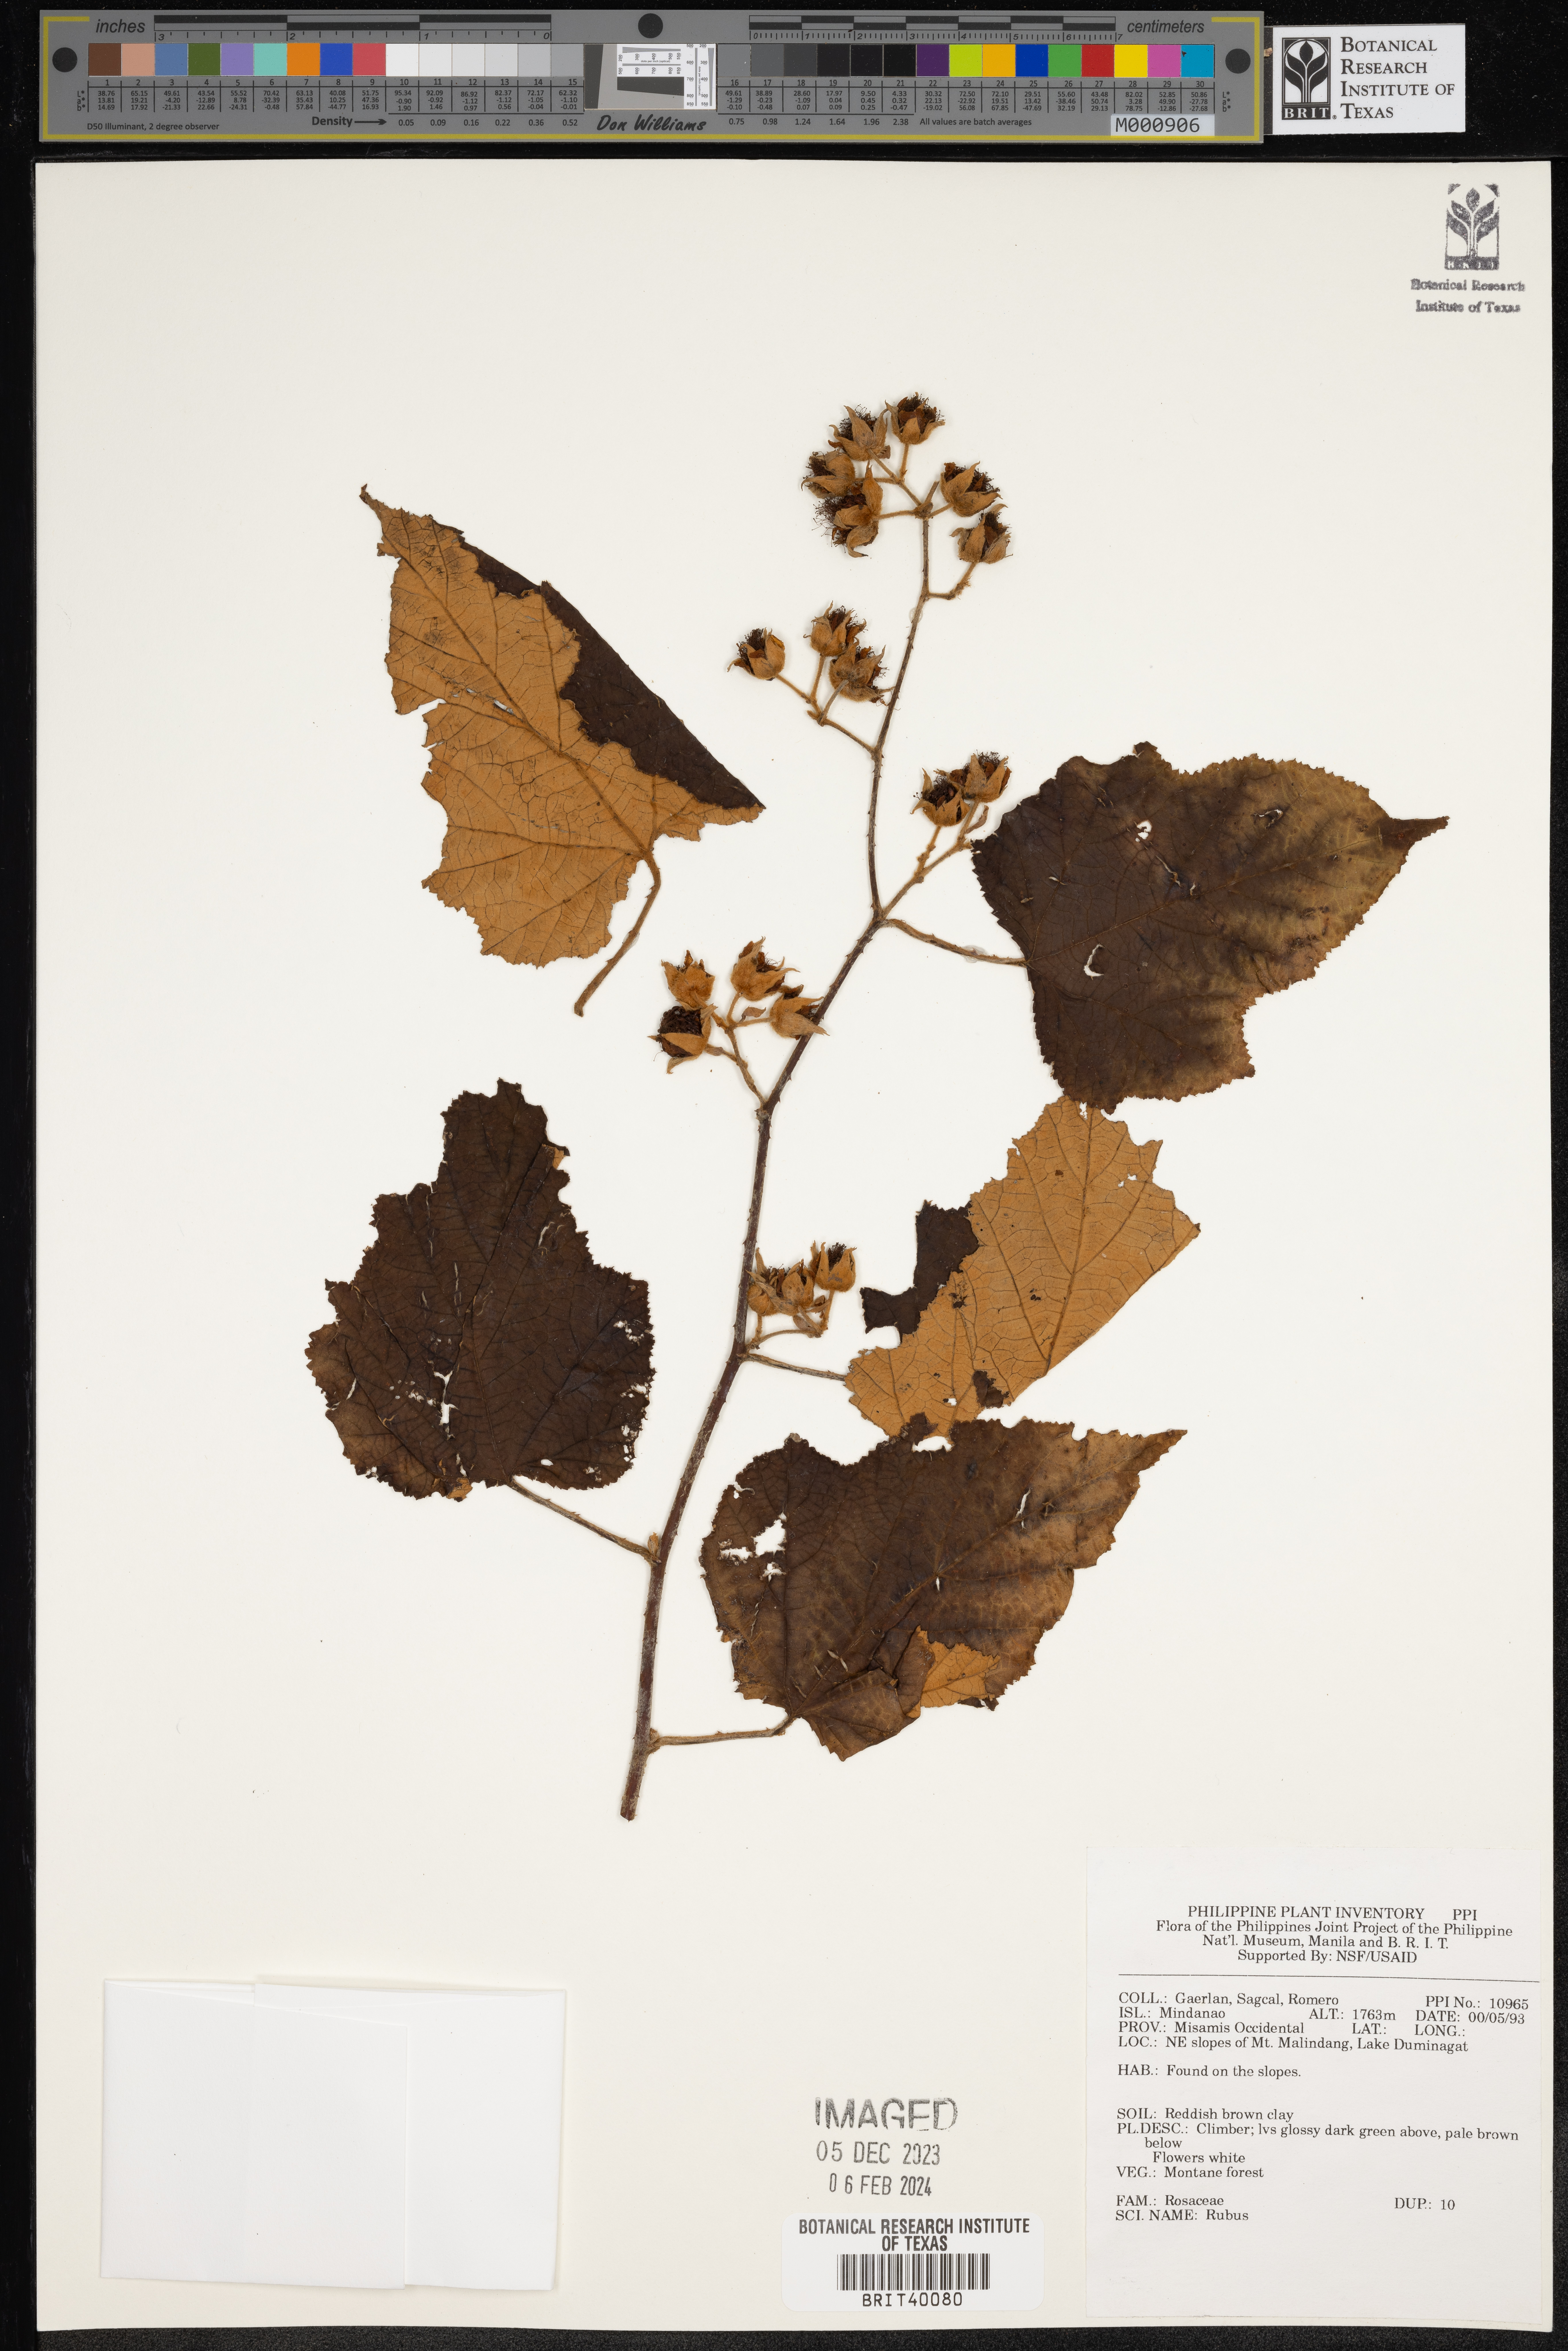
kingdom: Plantae
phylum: Tracheophyta
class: Magnoliopsida
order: Rosales
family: Rosaceae
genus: Rubus
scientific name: Rubus
